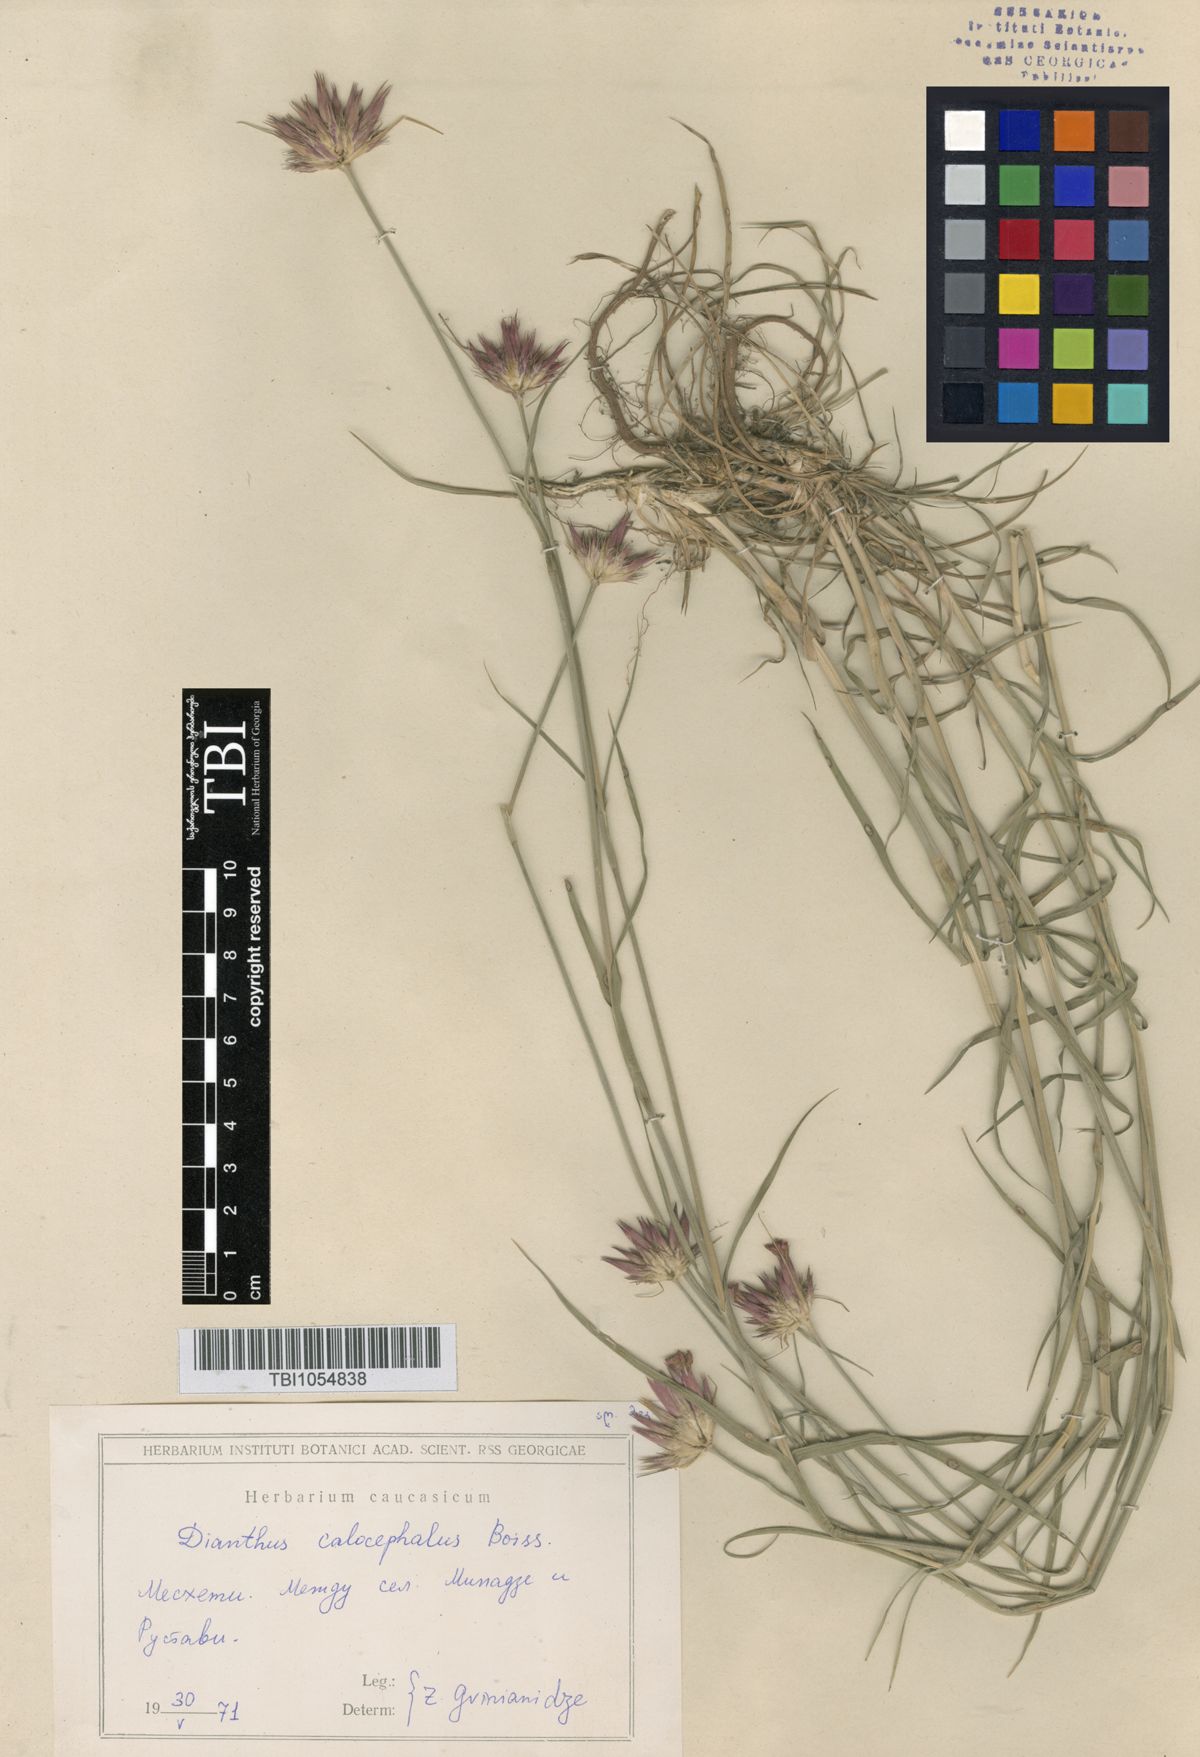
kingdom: Plantae
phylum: Tracheophyta
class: Magnoliopsida
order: Caryophyllales
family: Caryophyllaceae
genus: Dianthus
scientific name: Dianthus cruentus
